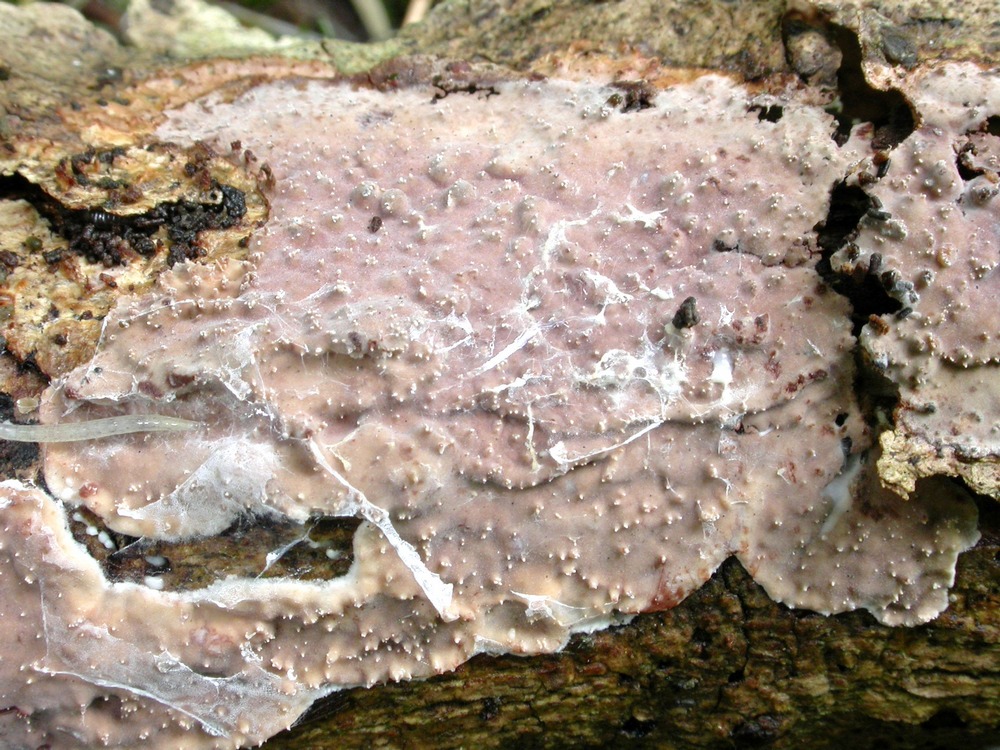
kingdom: Fungi
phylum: Basidiomycota
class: Agaricomycetes
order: Auriculariales
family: Auriculariaceae
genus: Heteroradulum
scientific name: Heteroradulum deglubens
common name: bævreskorpe
